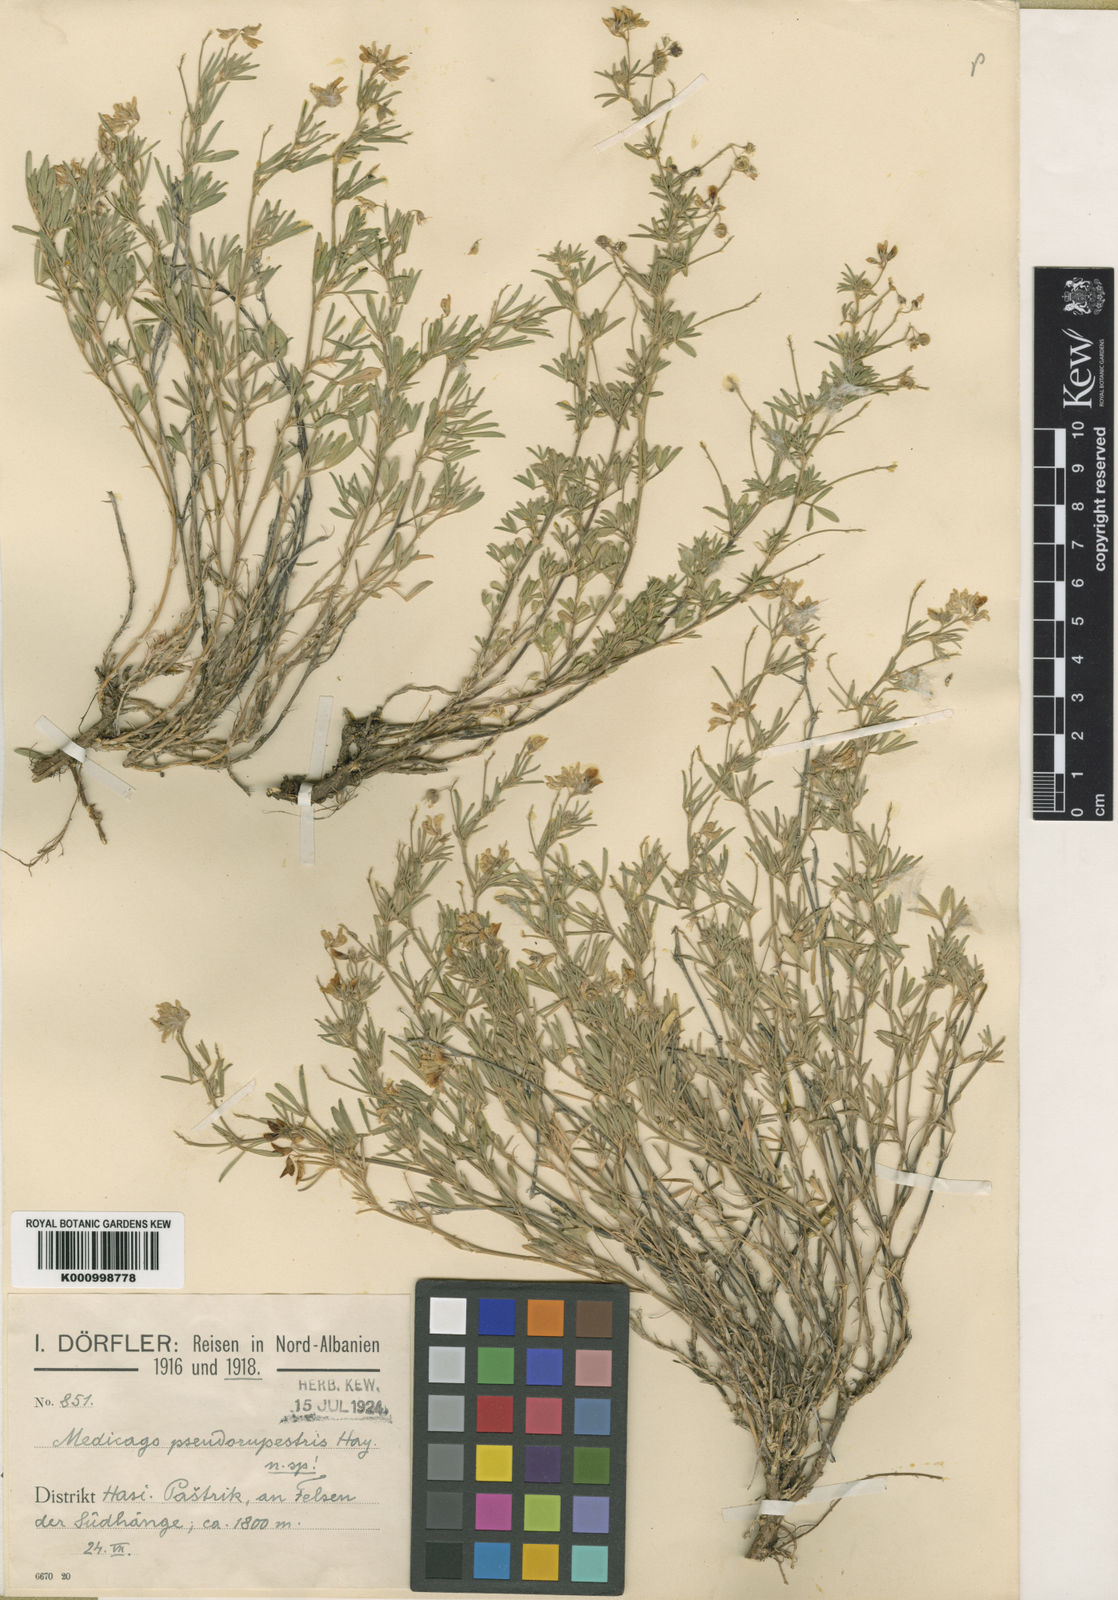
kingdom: Plantae
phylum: Tracheophyta
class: Magnoliopsida
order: Fabales
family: Fabaceae
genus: Medicago
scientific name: Medicago prostrata
